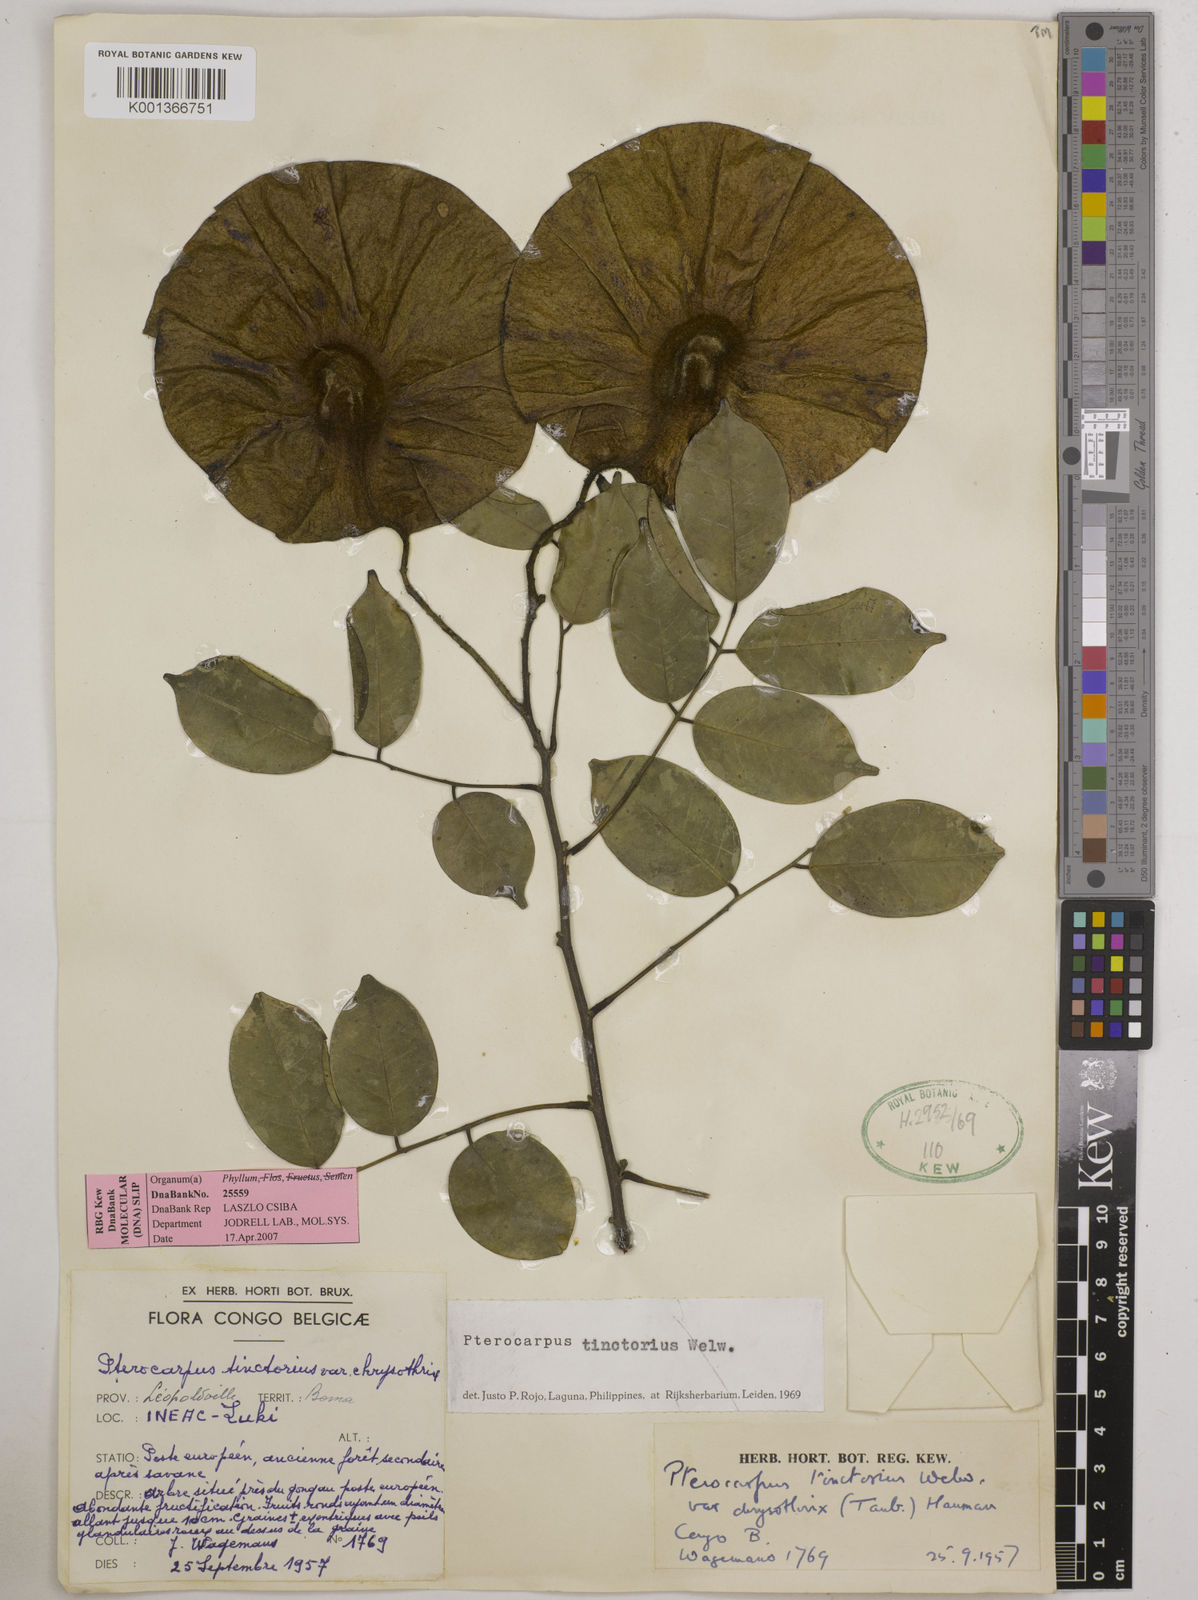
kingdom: Plantae
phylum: Tracheophyta
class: Magnoliopsida
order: Fabales
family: Fabaceae
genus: Pterocarpus
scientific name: Pterocarpus tessmannii
